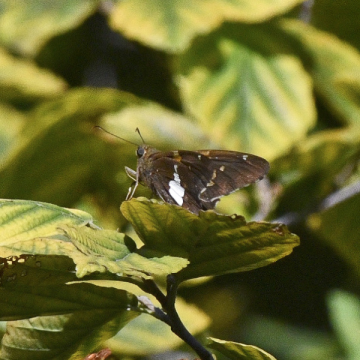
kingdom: Animalia
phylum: Arthropoda
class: Insecta
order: Lepidoptera
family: Hesperiidae
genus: Epargyreus
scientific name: Epargyreus clarus
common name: Silver-spotted Skipper
